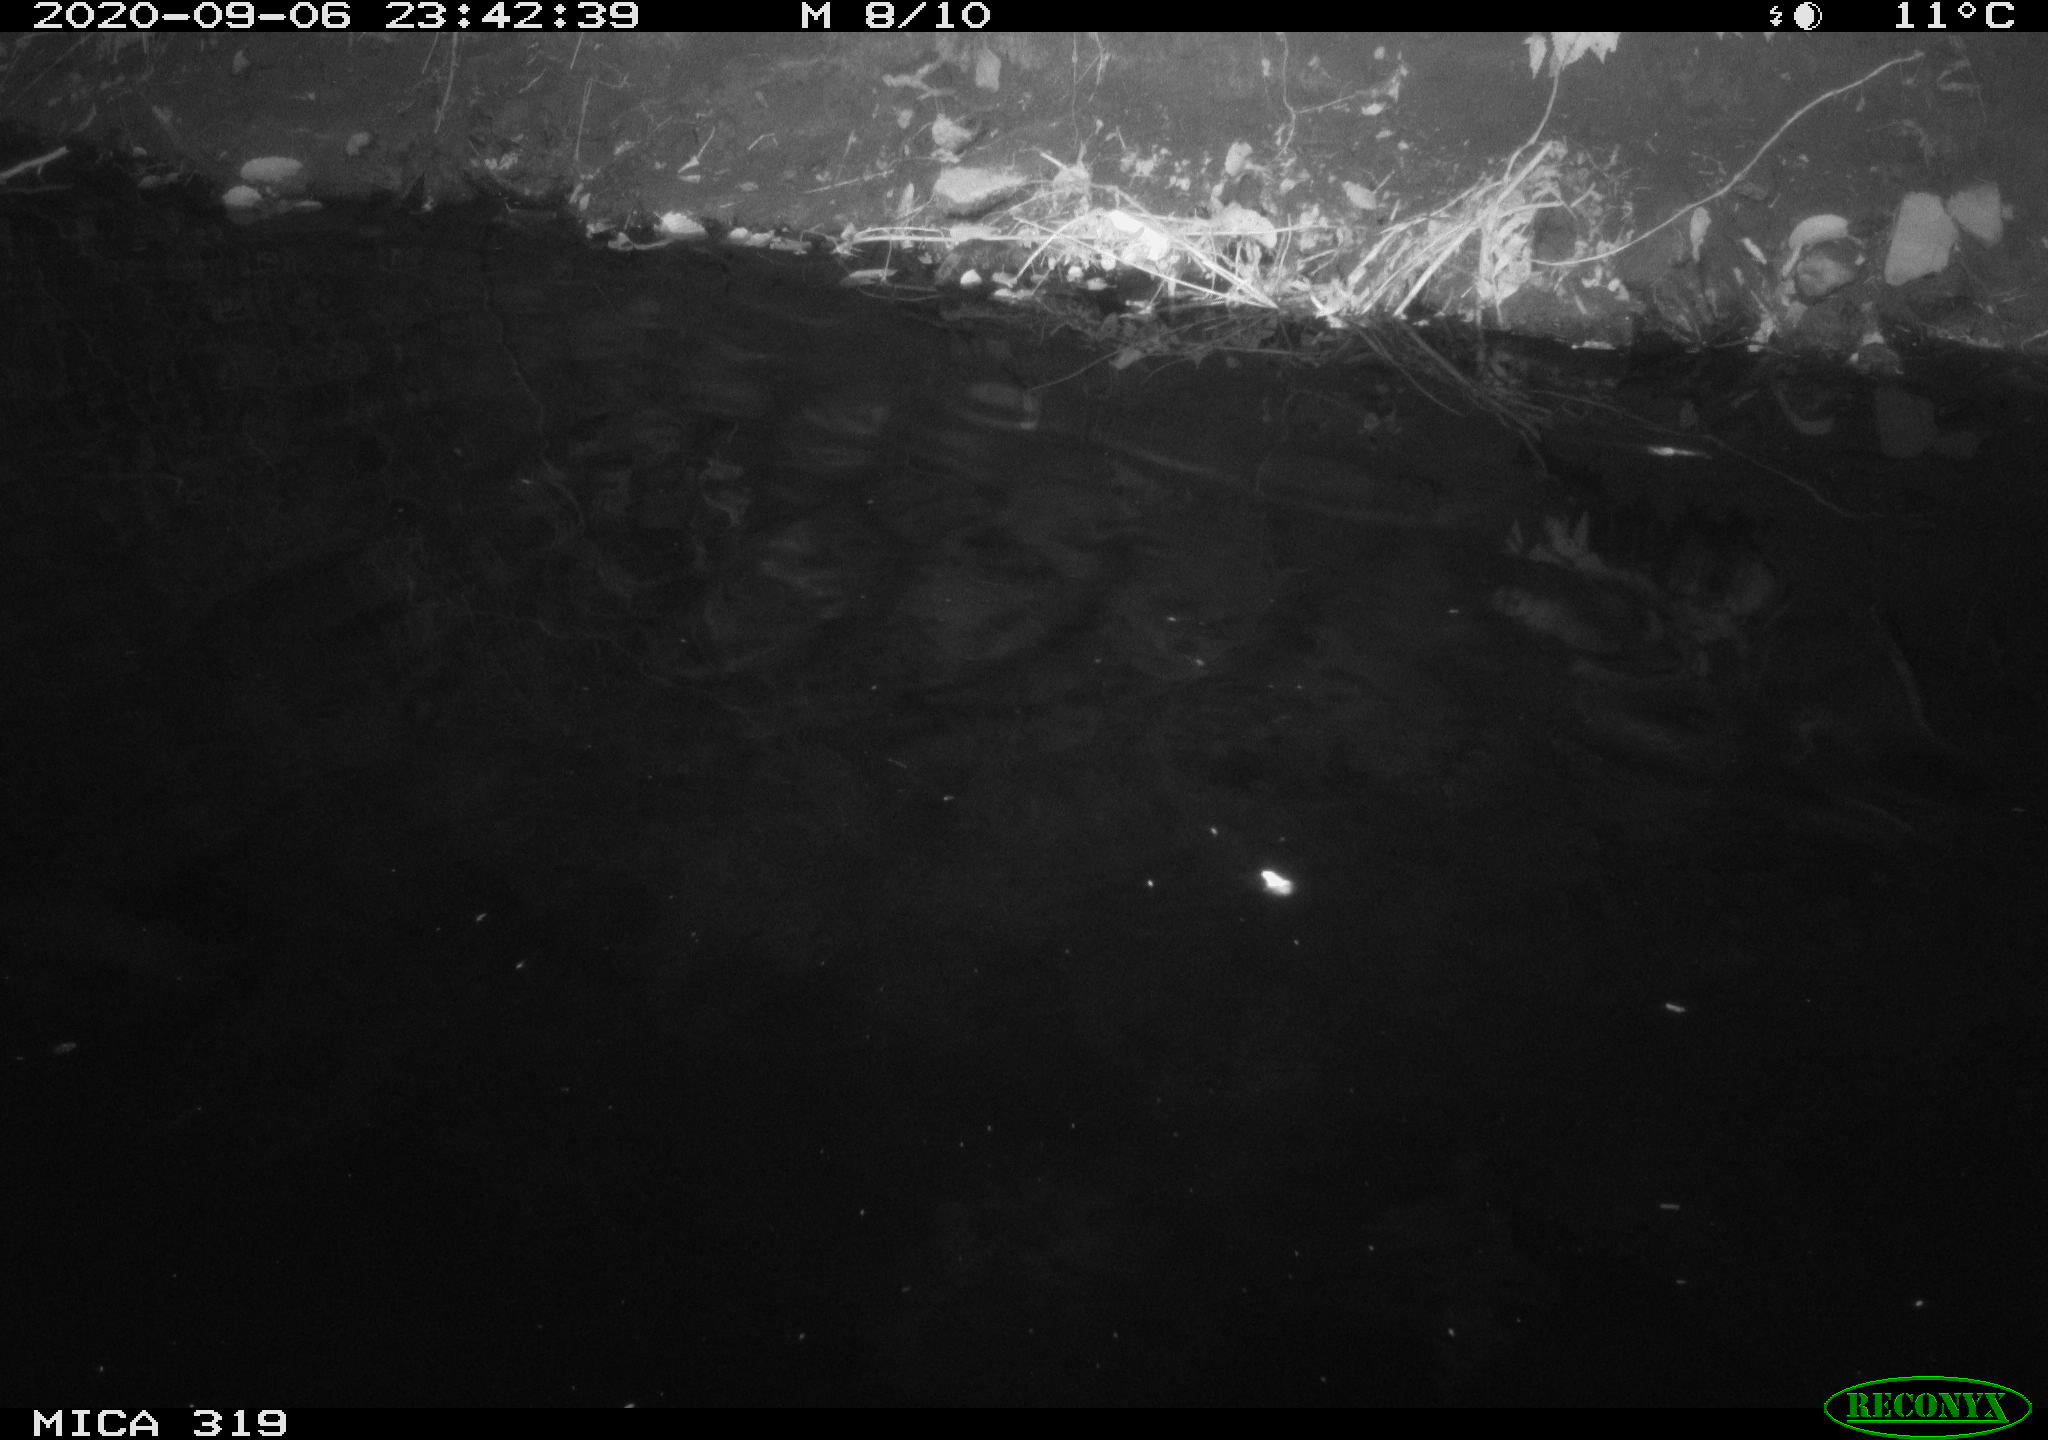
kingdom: Animalia
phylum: Chordata
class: Aves
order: Anseriformes
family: Anatidae
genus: Anas
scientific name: Anas platyrhynchos
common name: Mallard
